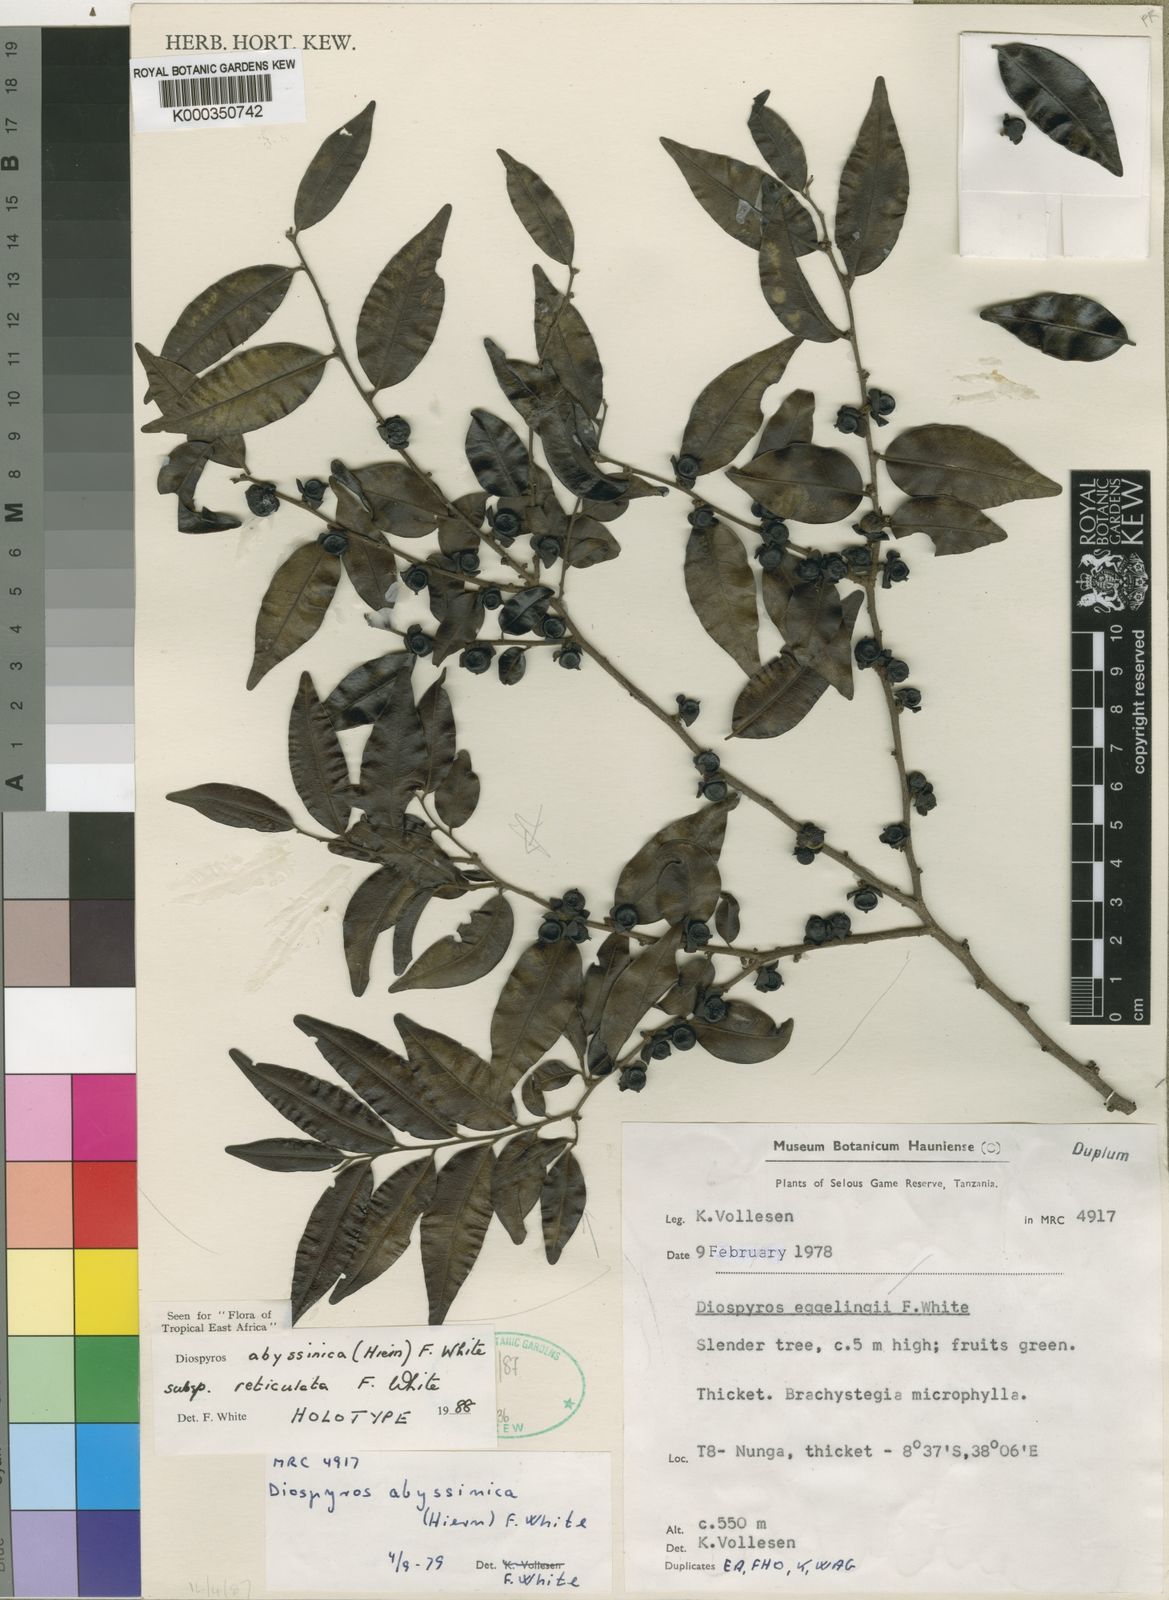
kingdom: Plantae
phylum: Tracheophyta
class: Magnoliopsida
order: Ericales
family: Ebenaceae
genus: Diospyros
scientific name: Diospyros abyssinica
